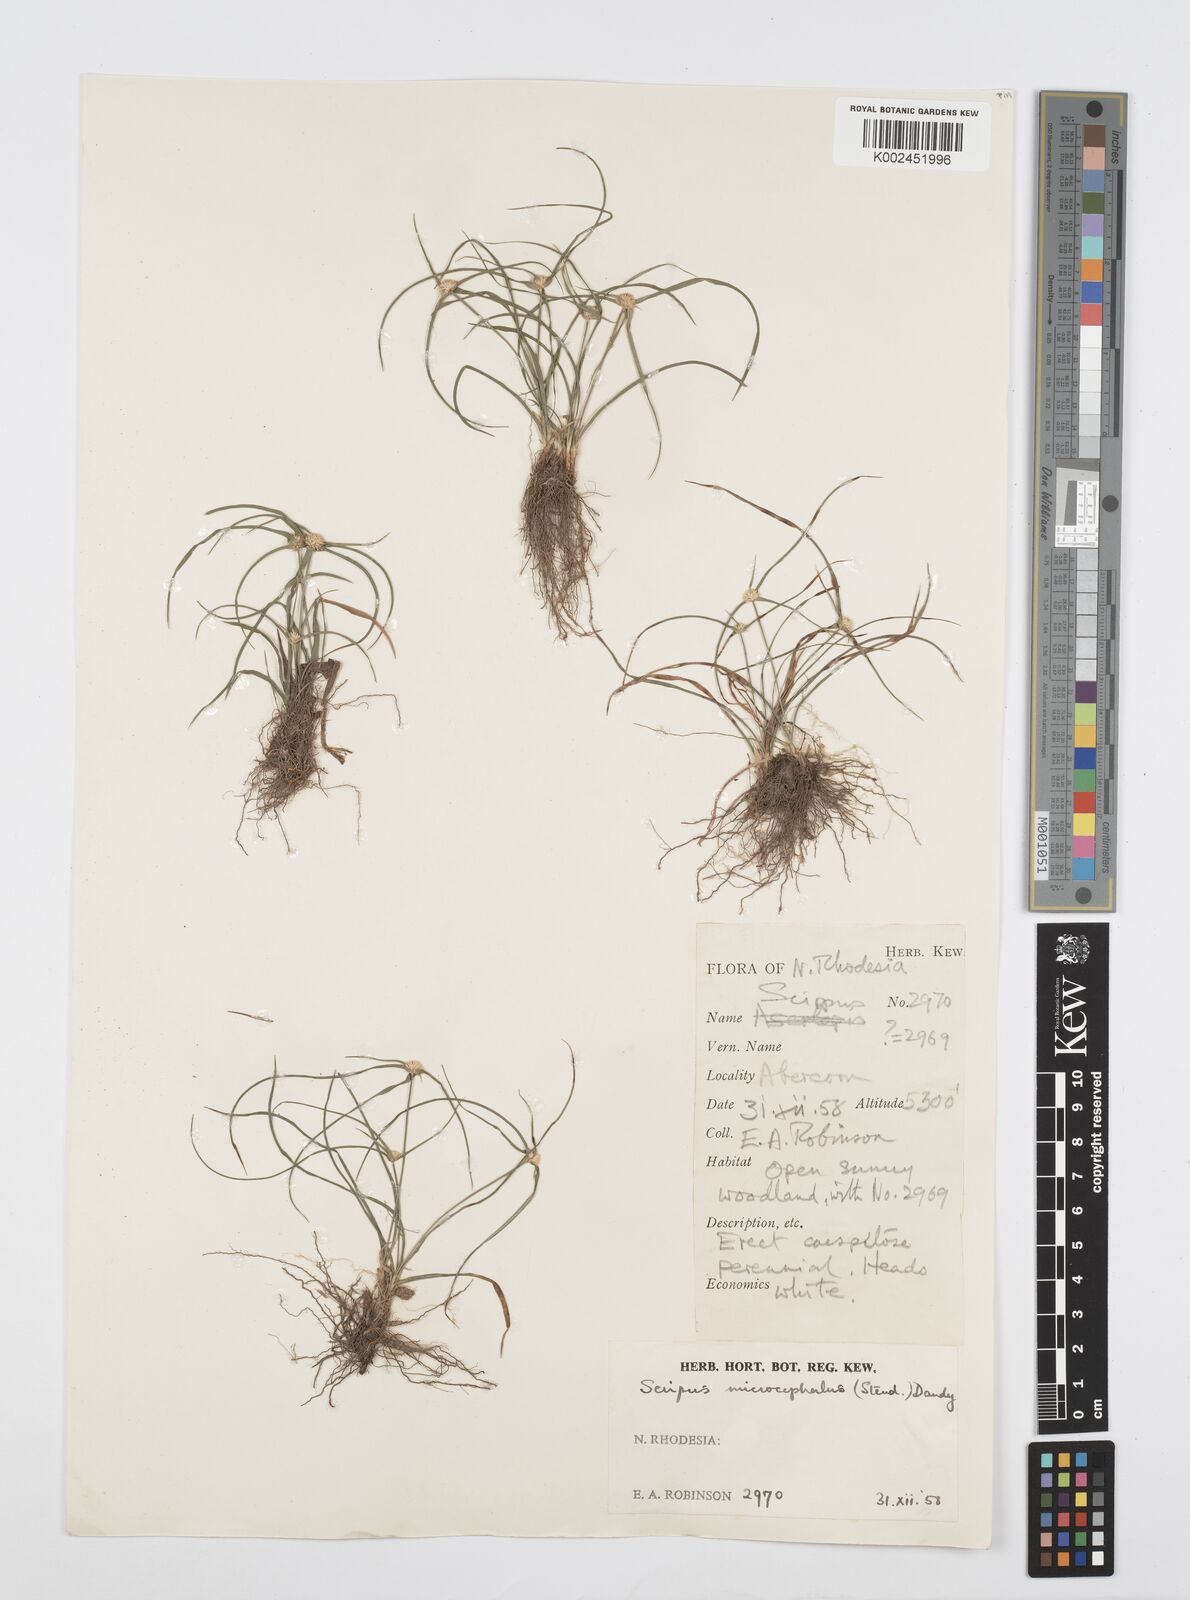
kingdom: Plantae
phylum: Tracheophyta
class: Liliopsida
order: Poales
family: Cyperaceae
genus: Cyperus
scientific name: Cyperus microcephalus
